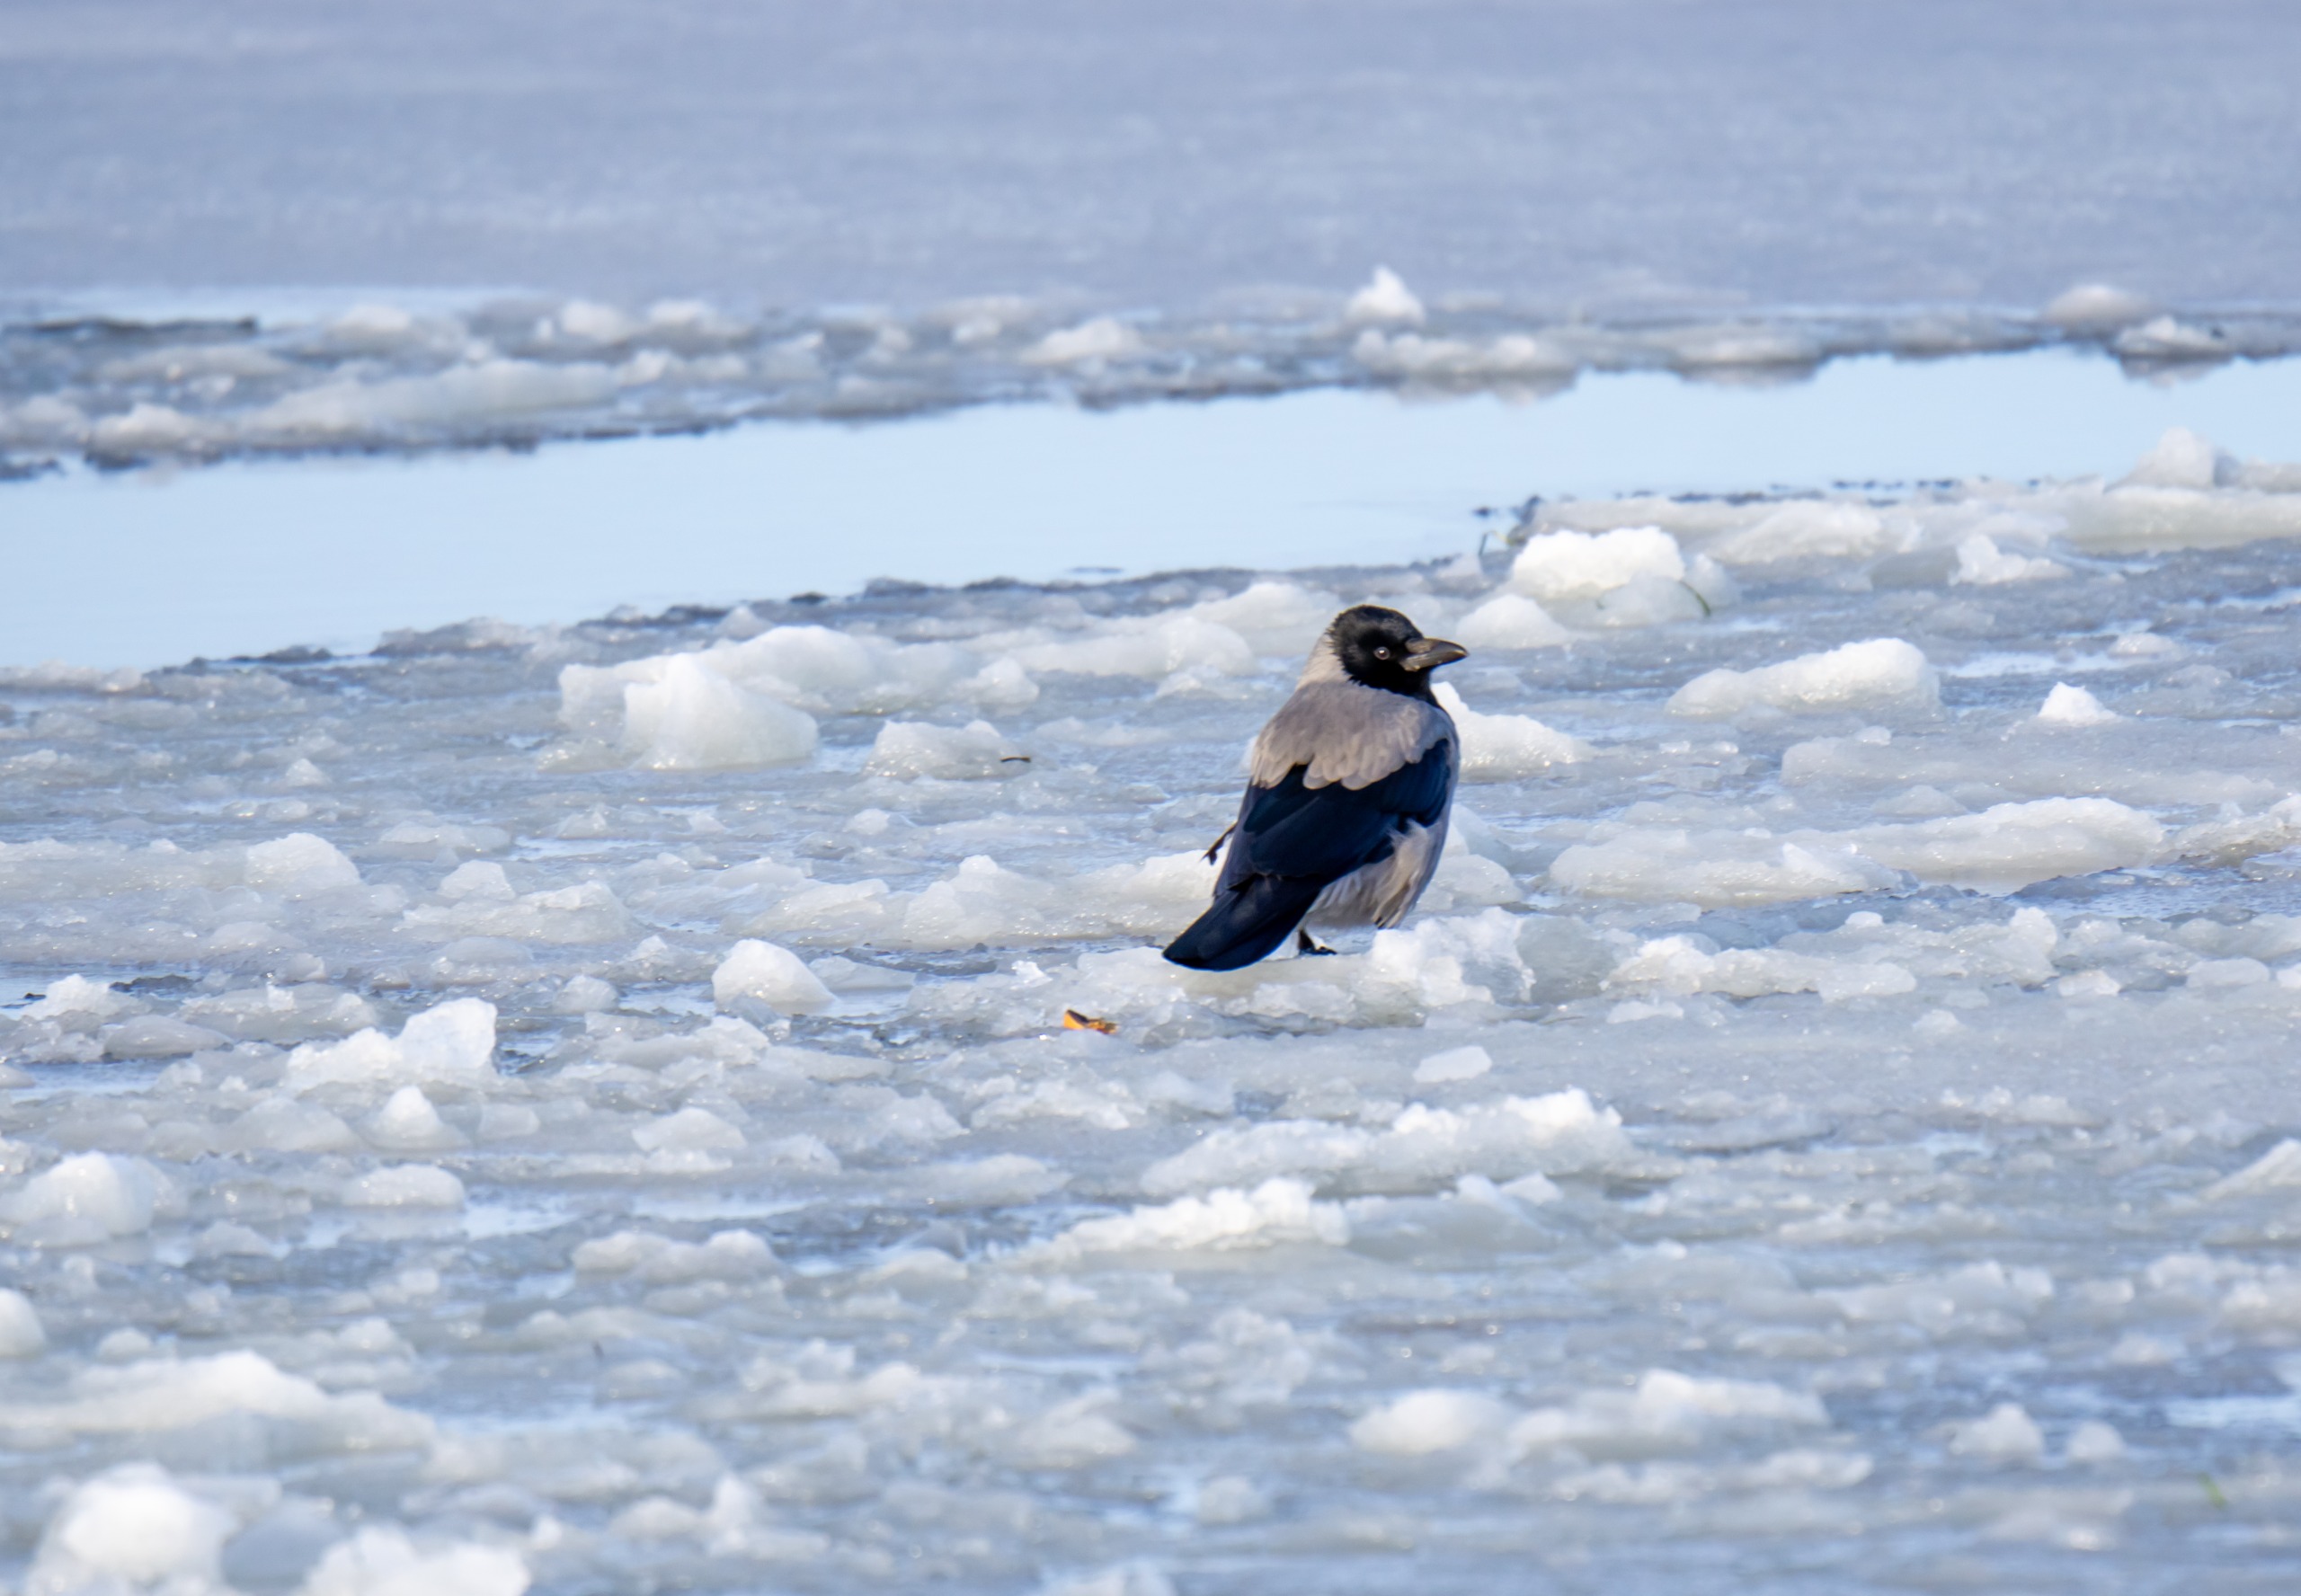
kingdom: Animalia
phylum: Chordata
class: Aves
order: Passeriformes
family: Corvidae
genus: Corvus
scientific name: Corvus cornix
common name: Gråkrage
